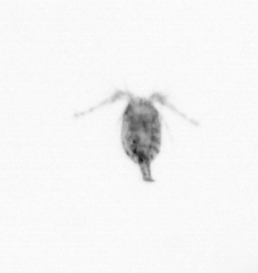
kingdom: Animalia
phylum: Arthropoda
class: Copepoda
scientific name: Copepoda
